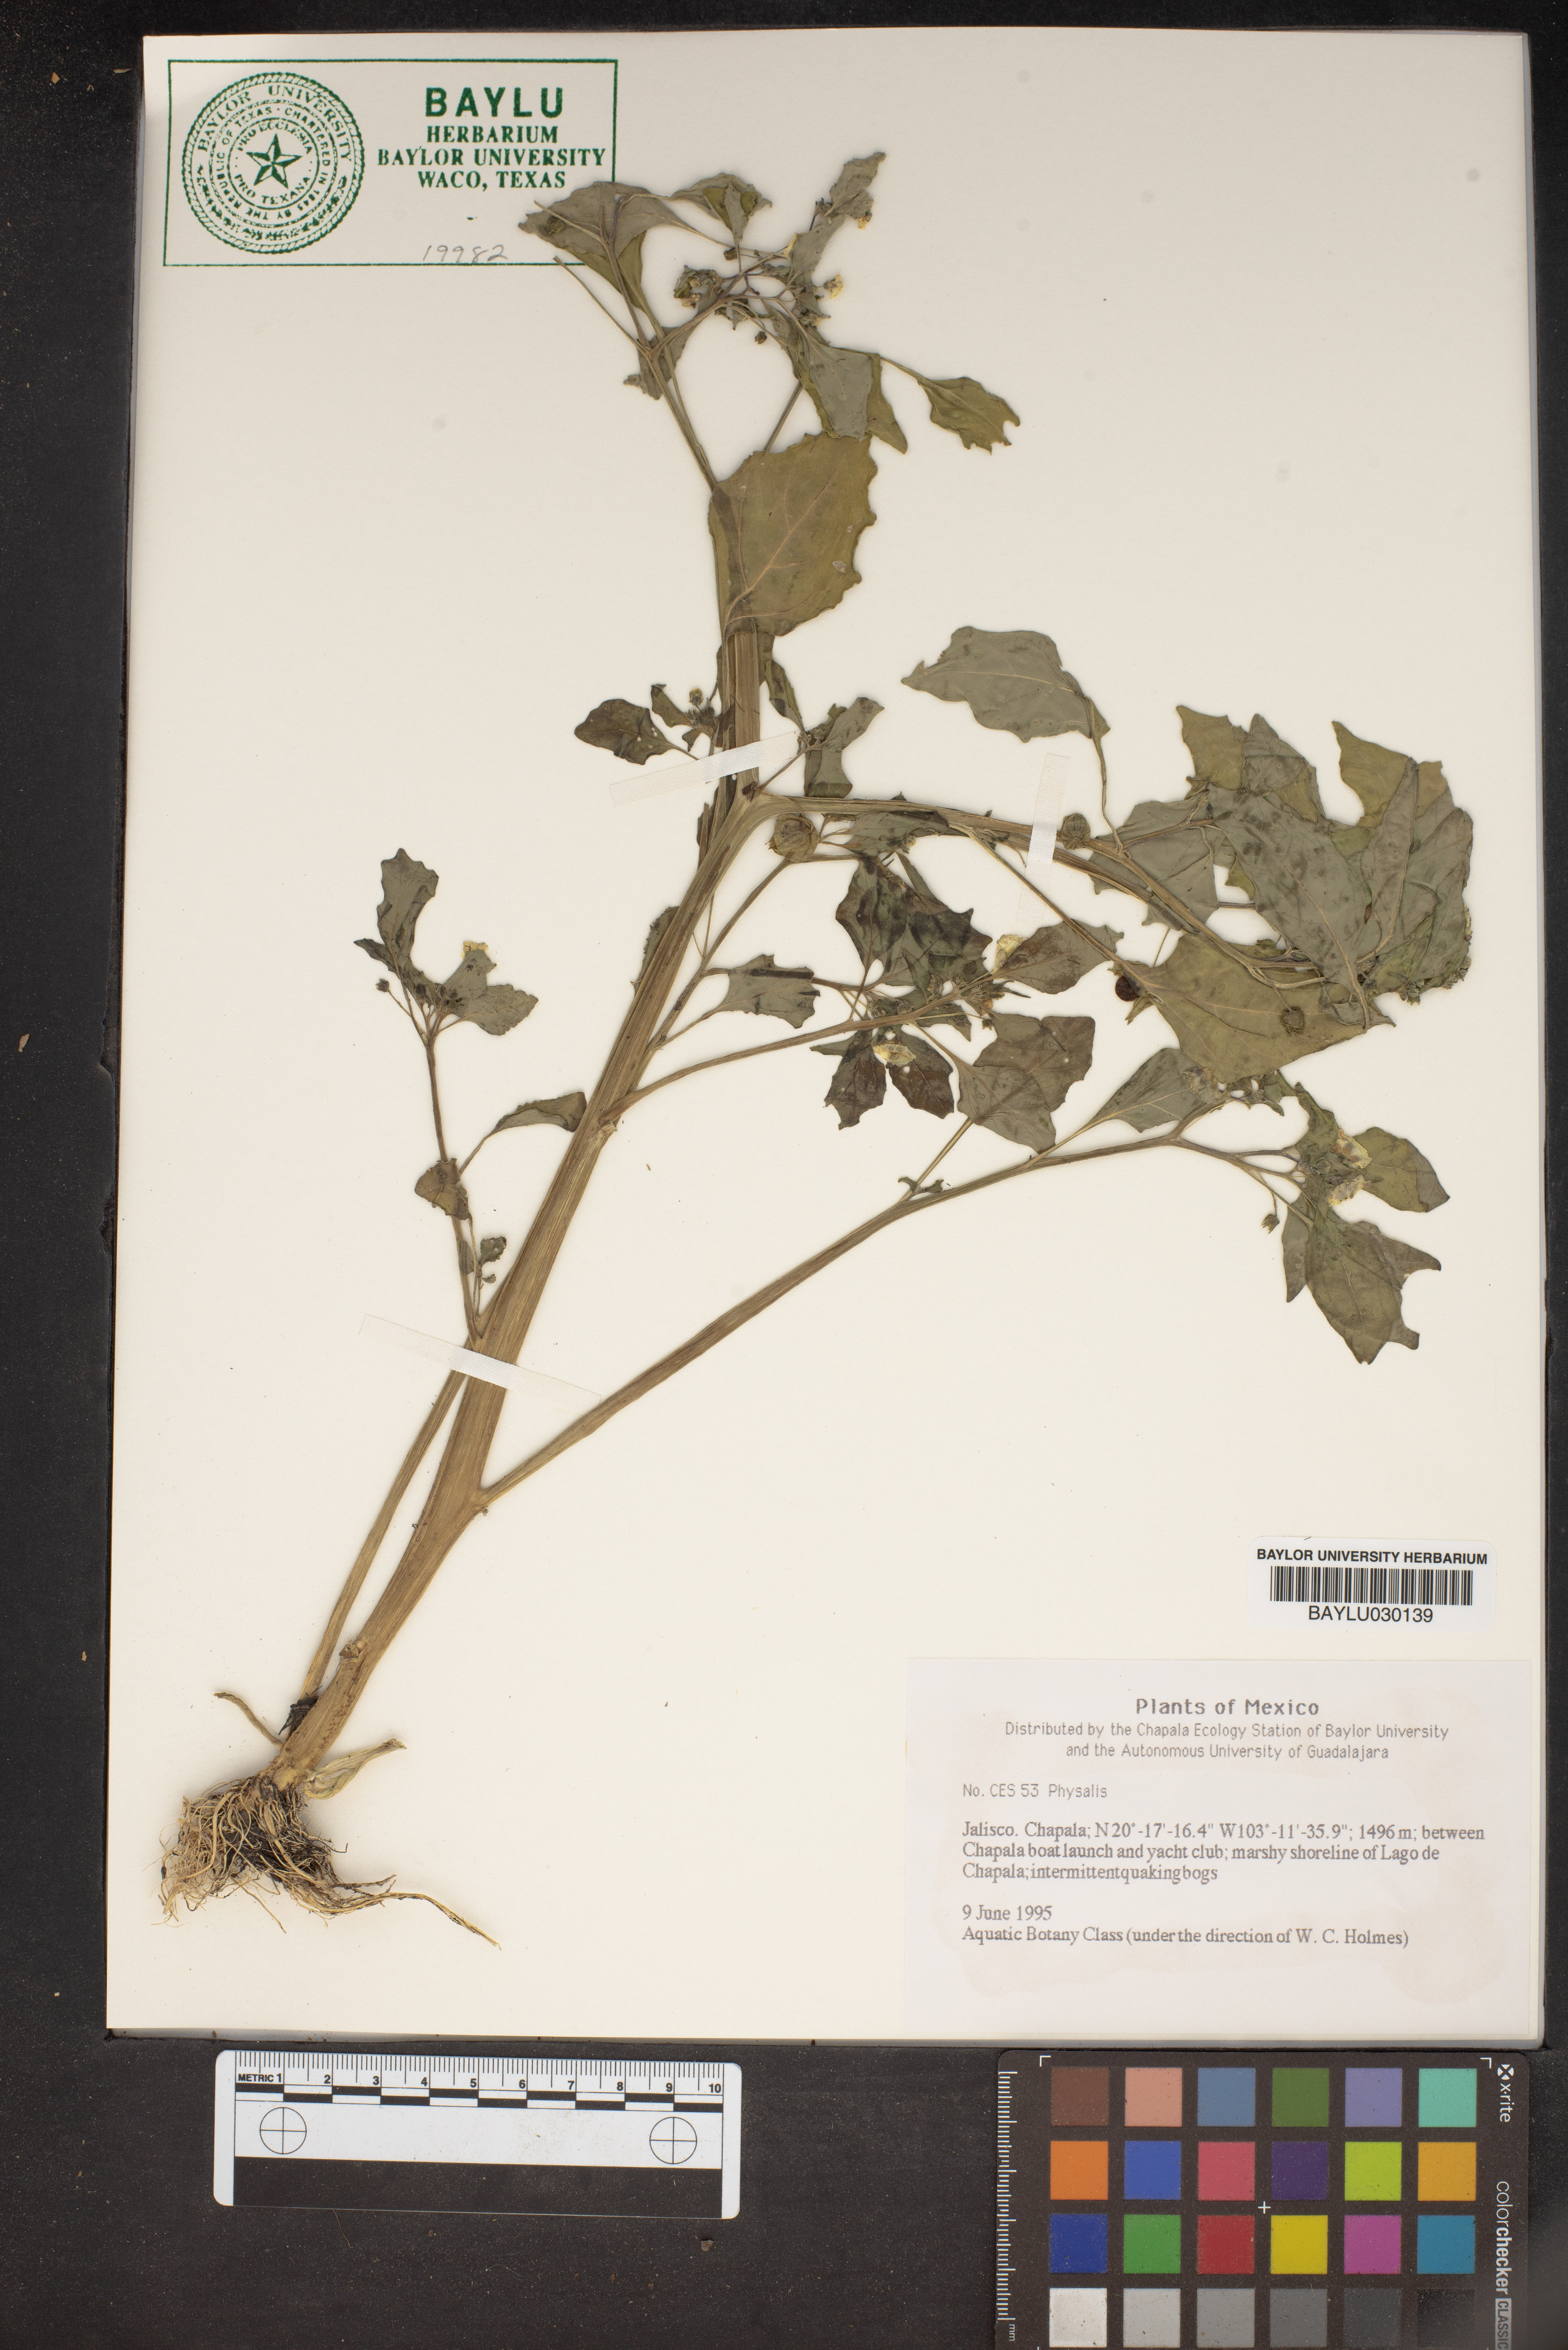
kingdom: Plantae
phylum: Tracheophyta
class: Magnoliopsida
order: Solanales
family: Solanaceae
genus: Physalis
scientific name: Physalis
